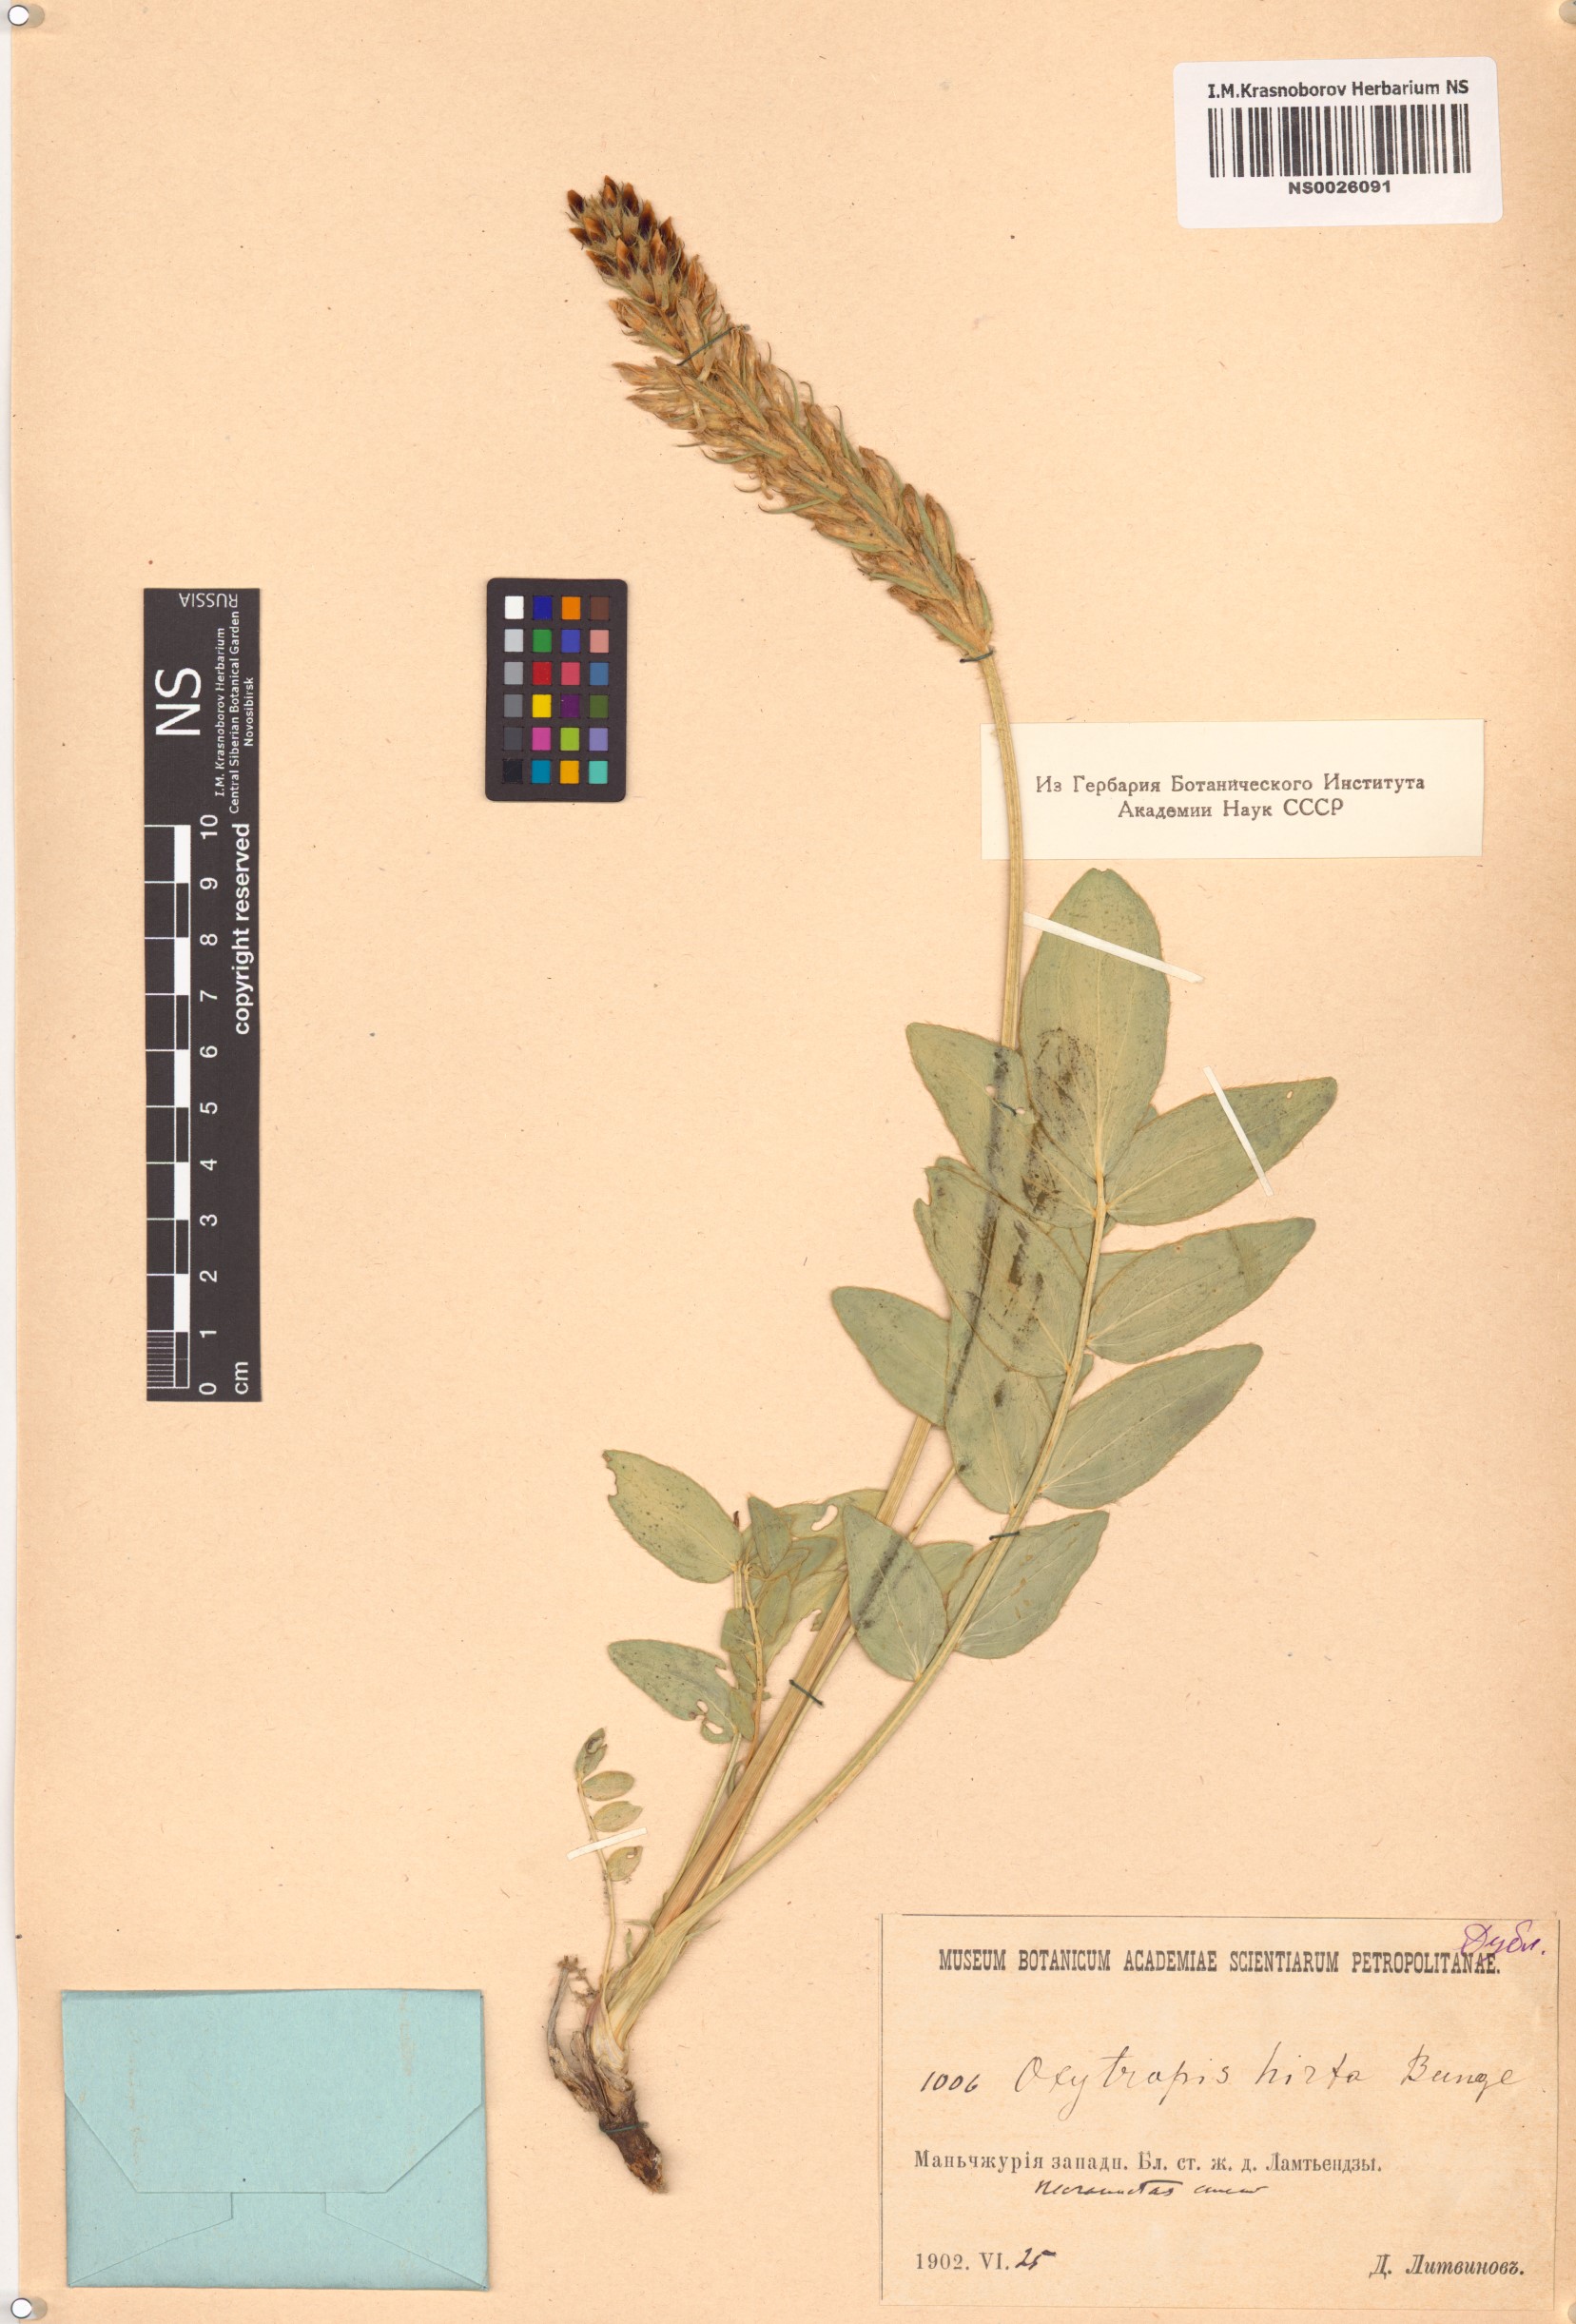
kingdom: Plantae
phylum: Tracheophyta
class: Magnoliopsida
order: Fabales
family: Fabaceae
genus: Oxytropis
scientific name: Oxytropis hirta
